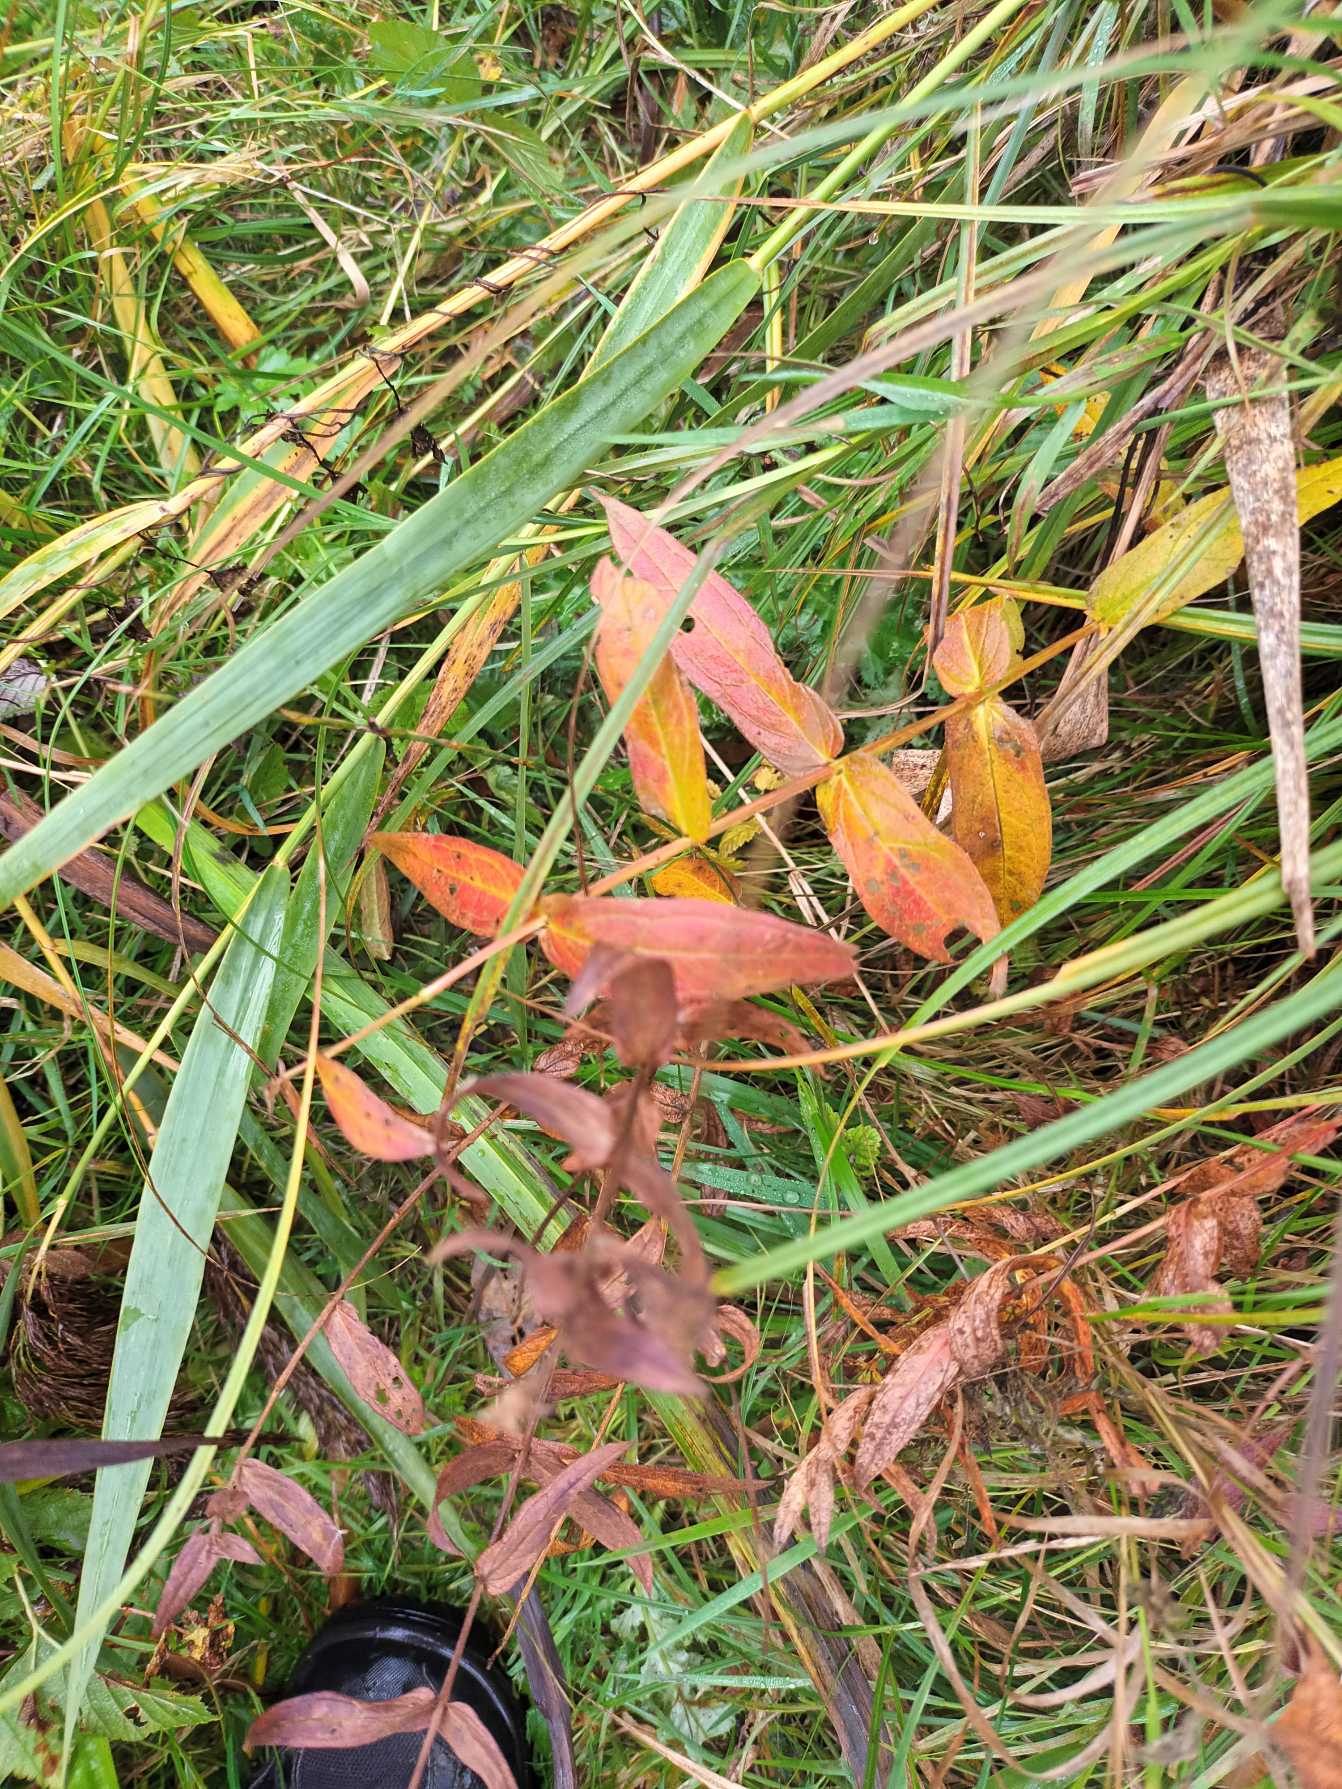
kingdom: Plantae
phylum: Tracheophyta
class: Magnoliopsida
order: Lamiales
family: Lamiaceae
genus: Scutellaria
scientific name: Scutellaria galericulata
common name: Almindelig skjolddrager
